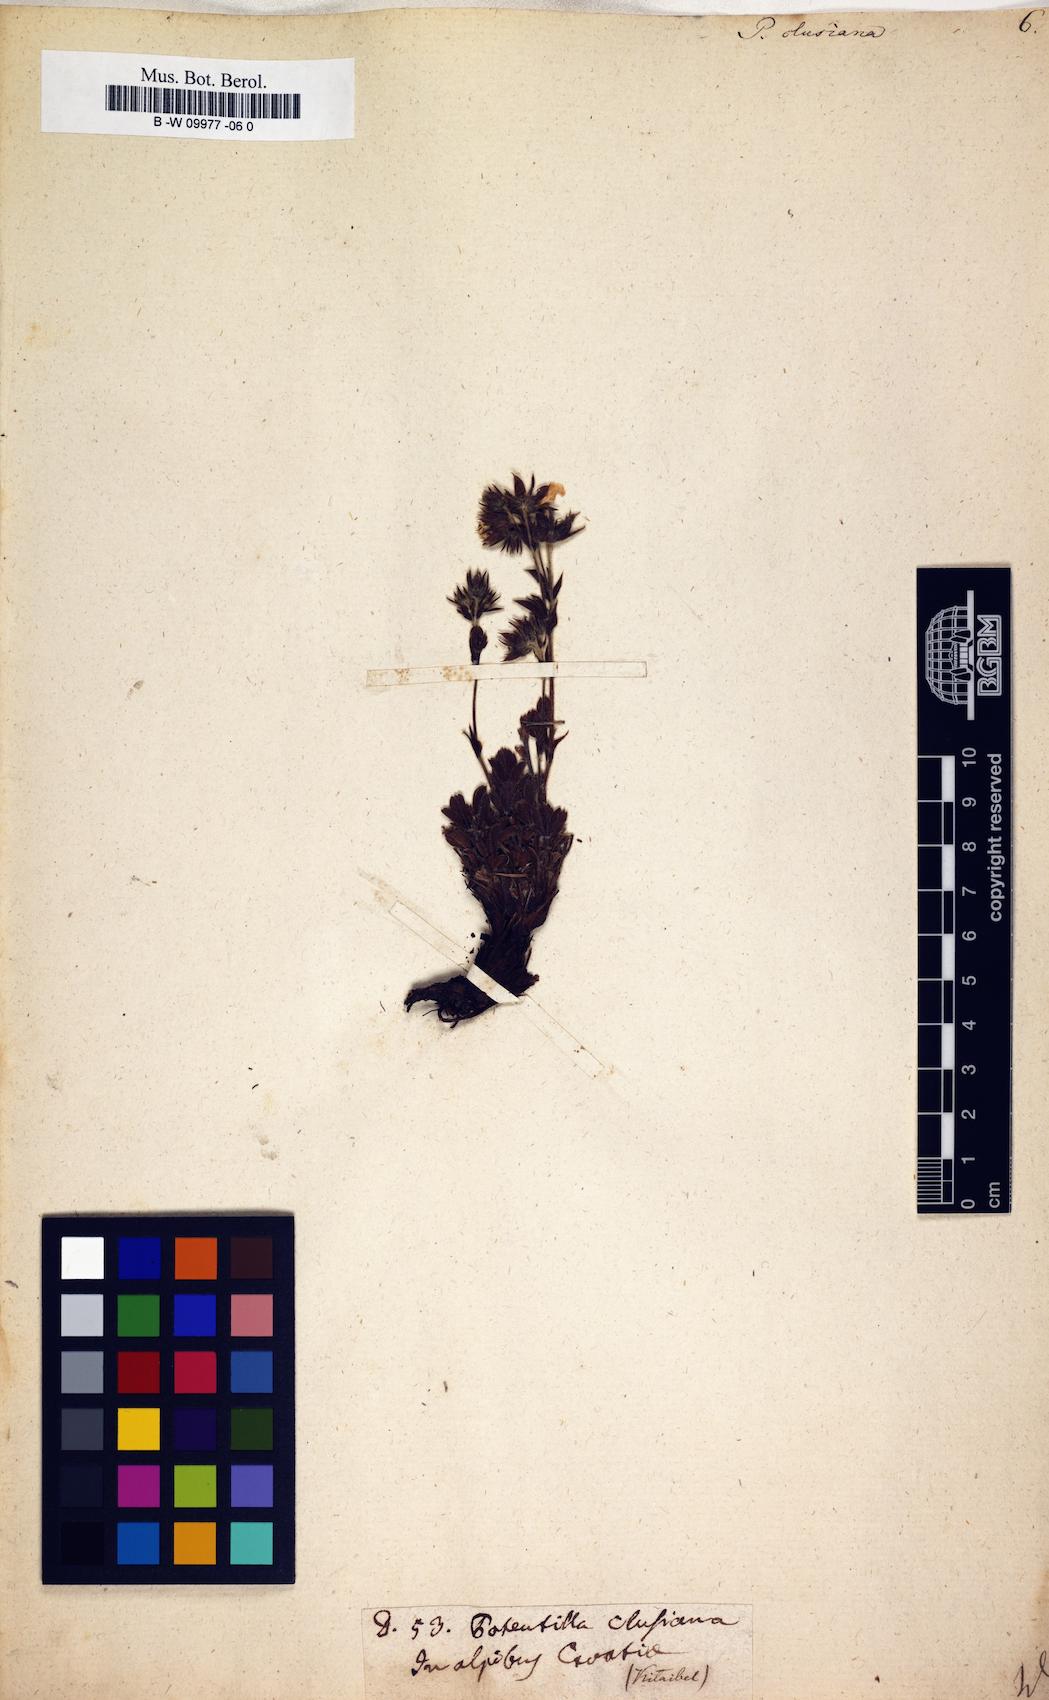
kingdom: Plantae
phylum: Tracheophyta
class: Magnoliopsida
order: Rosales
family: Rosaceae
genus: Potentilla
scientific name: Potentilla clusiana
